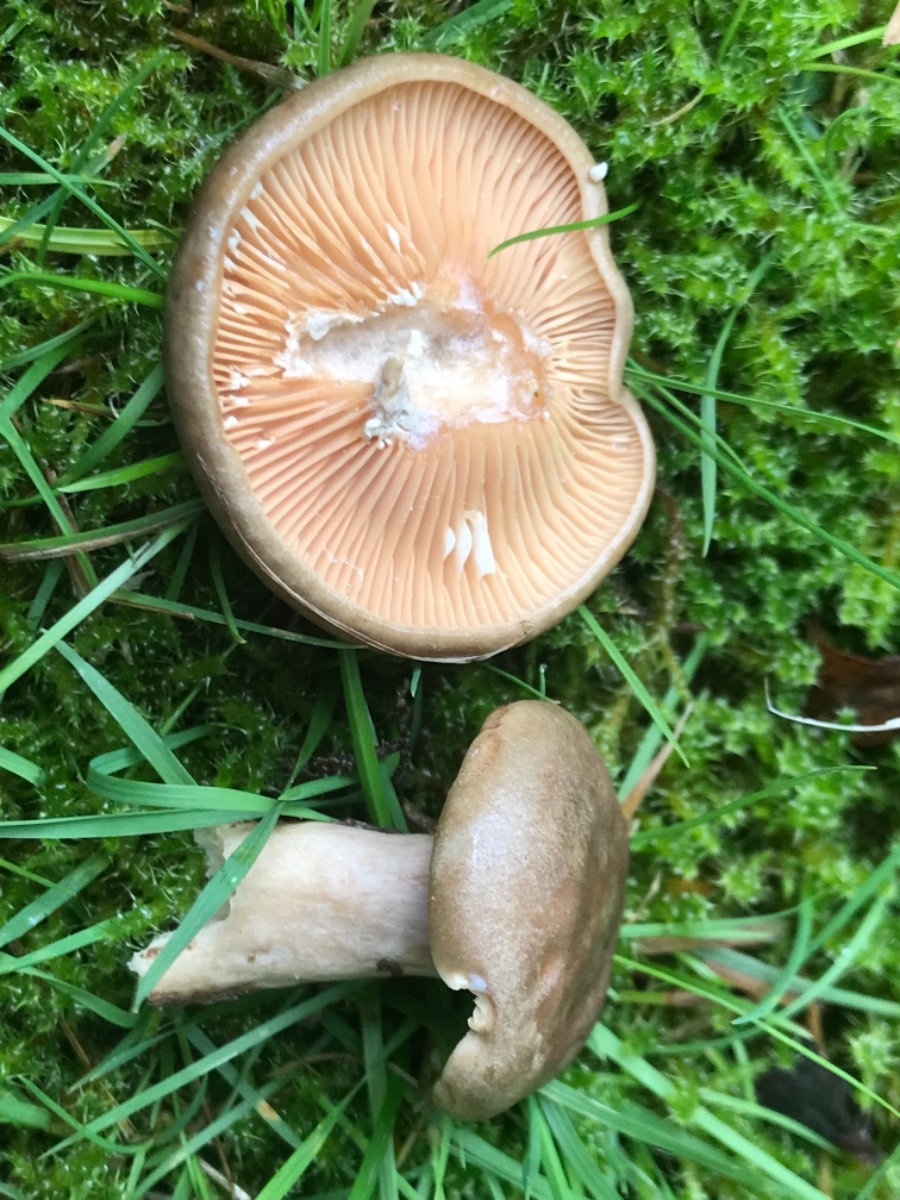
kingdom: Fungi
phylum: Basidiomycota
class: Agaricomycetes
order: Russulales
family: Russulaceae
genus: Lactarius
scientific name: Lactarius pyrogalus
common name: hassel-mælkehat
